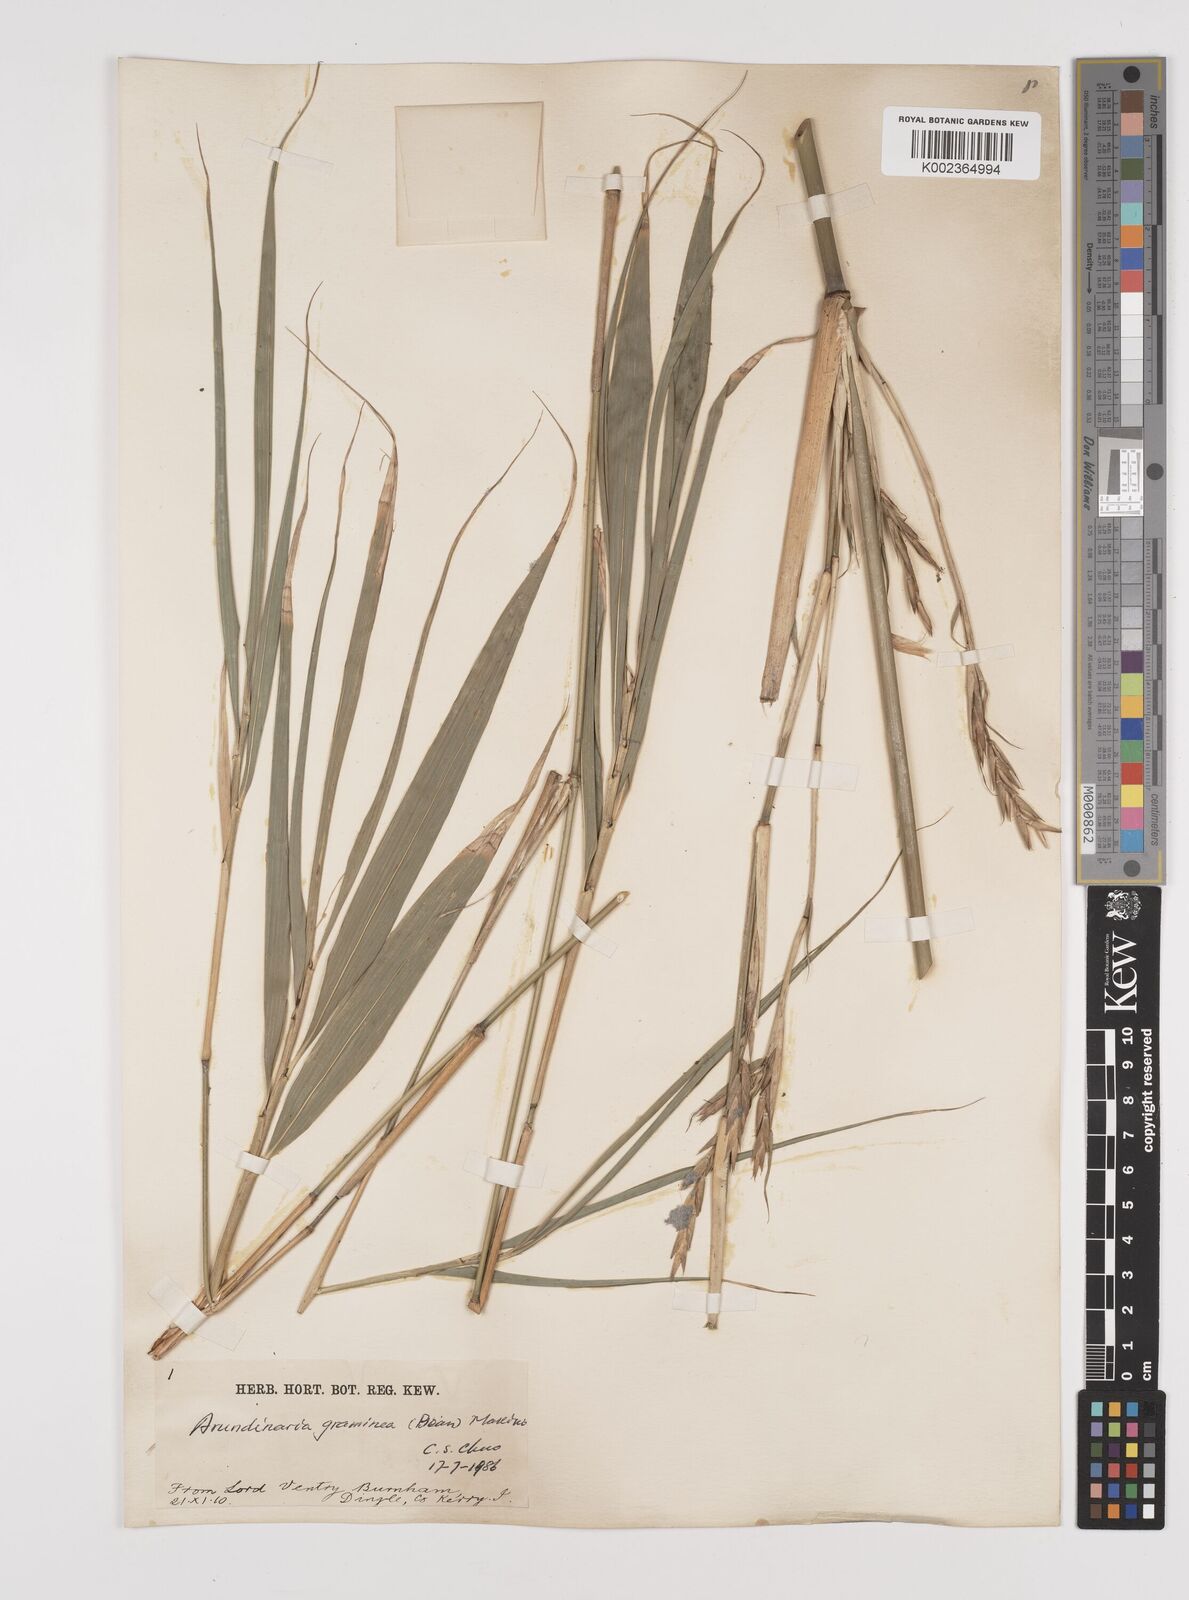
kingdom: Plantae
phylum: Tracheophyta
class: Liliopsida
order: Poales
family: Poaceae
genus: Pleioblastus
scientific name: Pleioblastus gramineus
